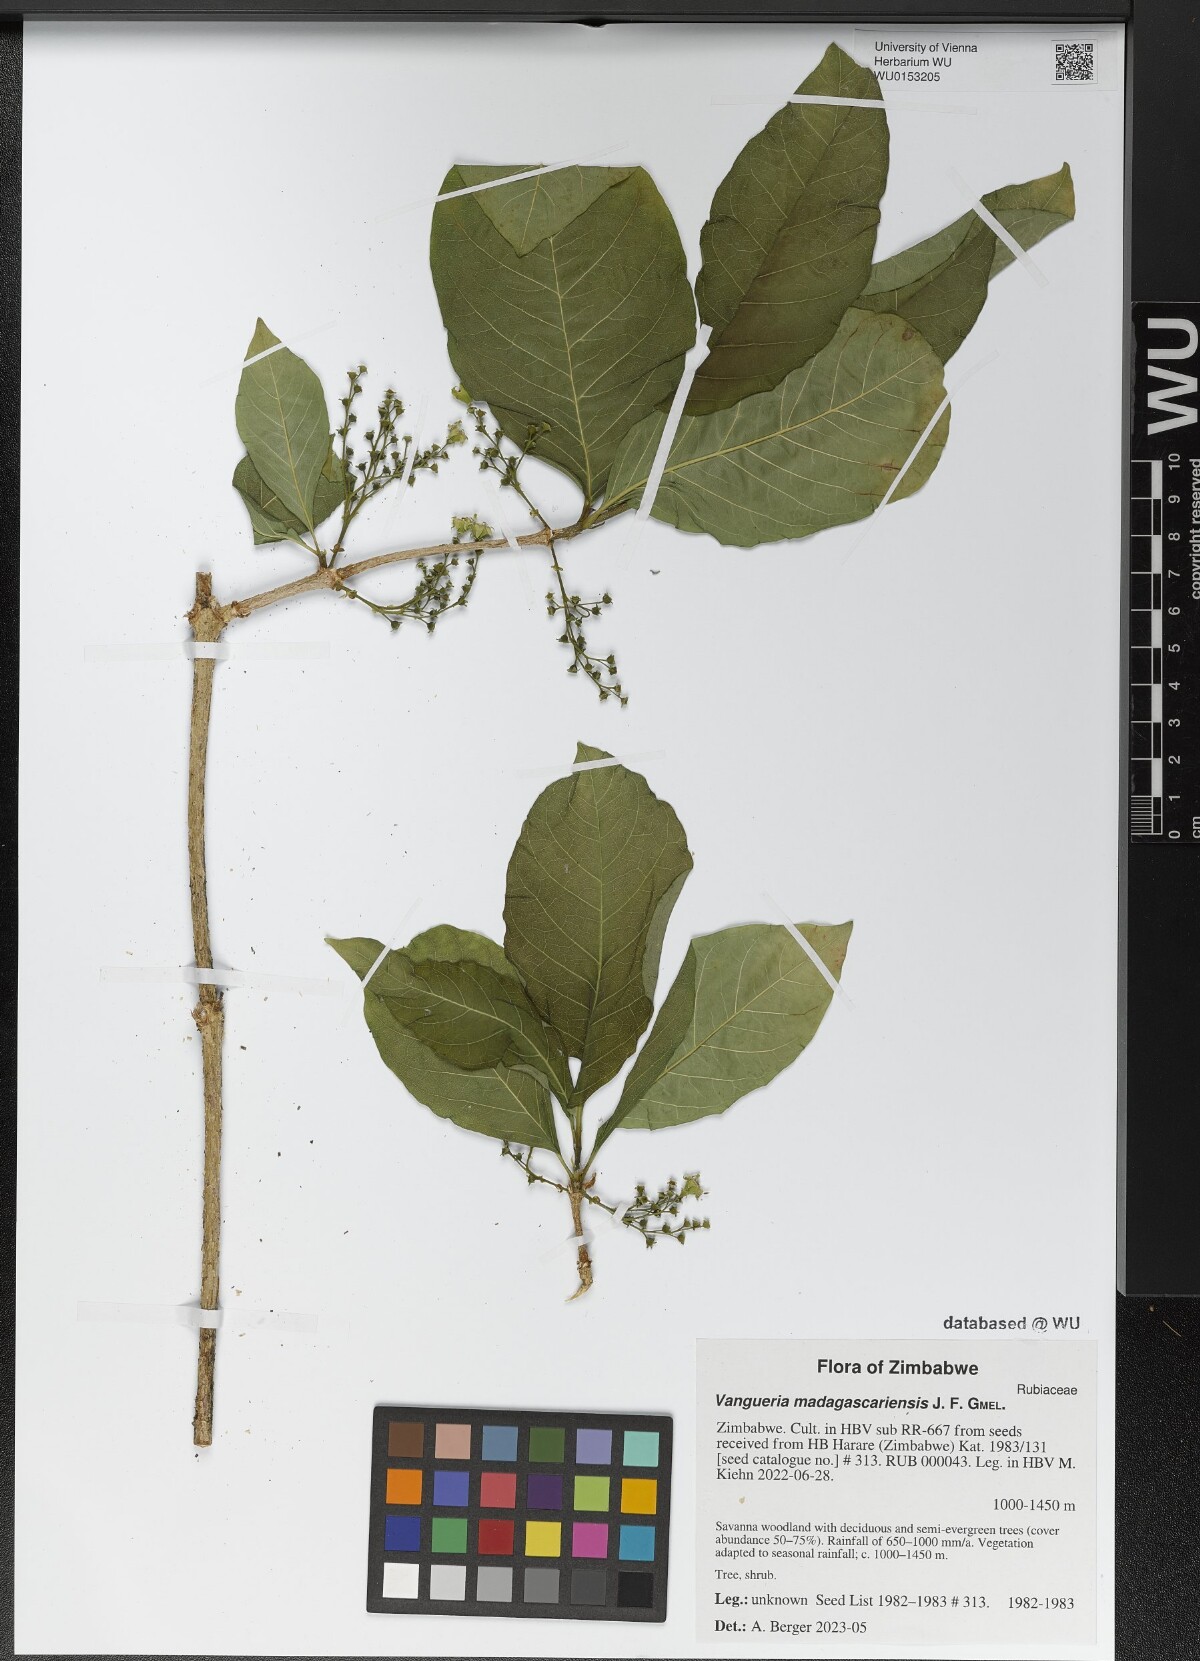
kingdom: Plantae
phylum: Tracheophyta
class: Magnoliopsida
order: Gentianales
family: Rubiaceae
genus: Vangueria
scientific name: Vangueria madagascariensis
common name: Smooth wild-medlar
